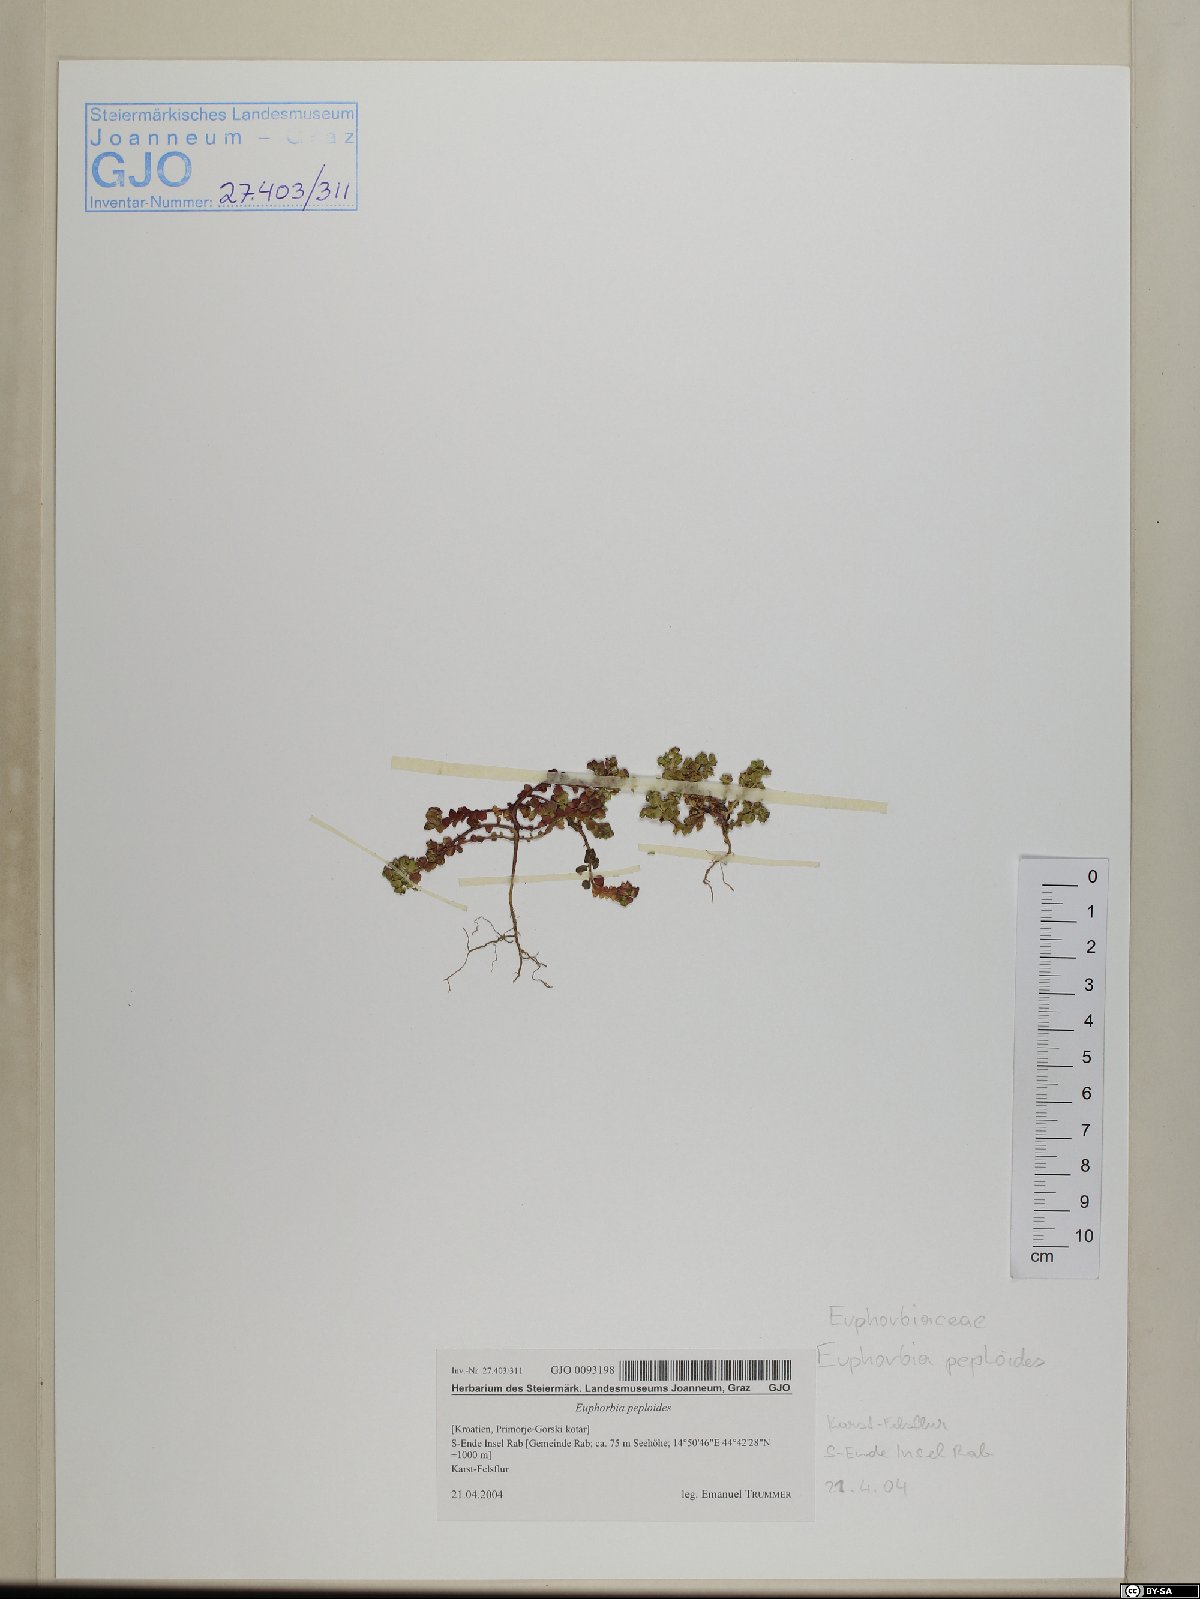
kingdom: Plantae
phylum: Tracheophyta
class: Magnoliopsida
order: Malpighiales
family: Euphorbiaceae
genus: Euphorbia
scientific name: Euphorbia peplus
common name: Petty spurge
